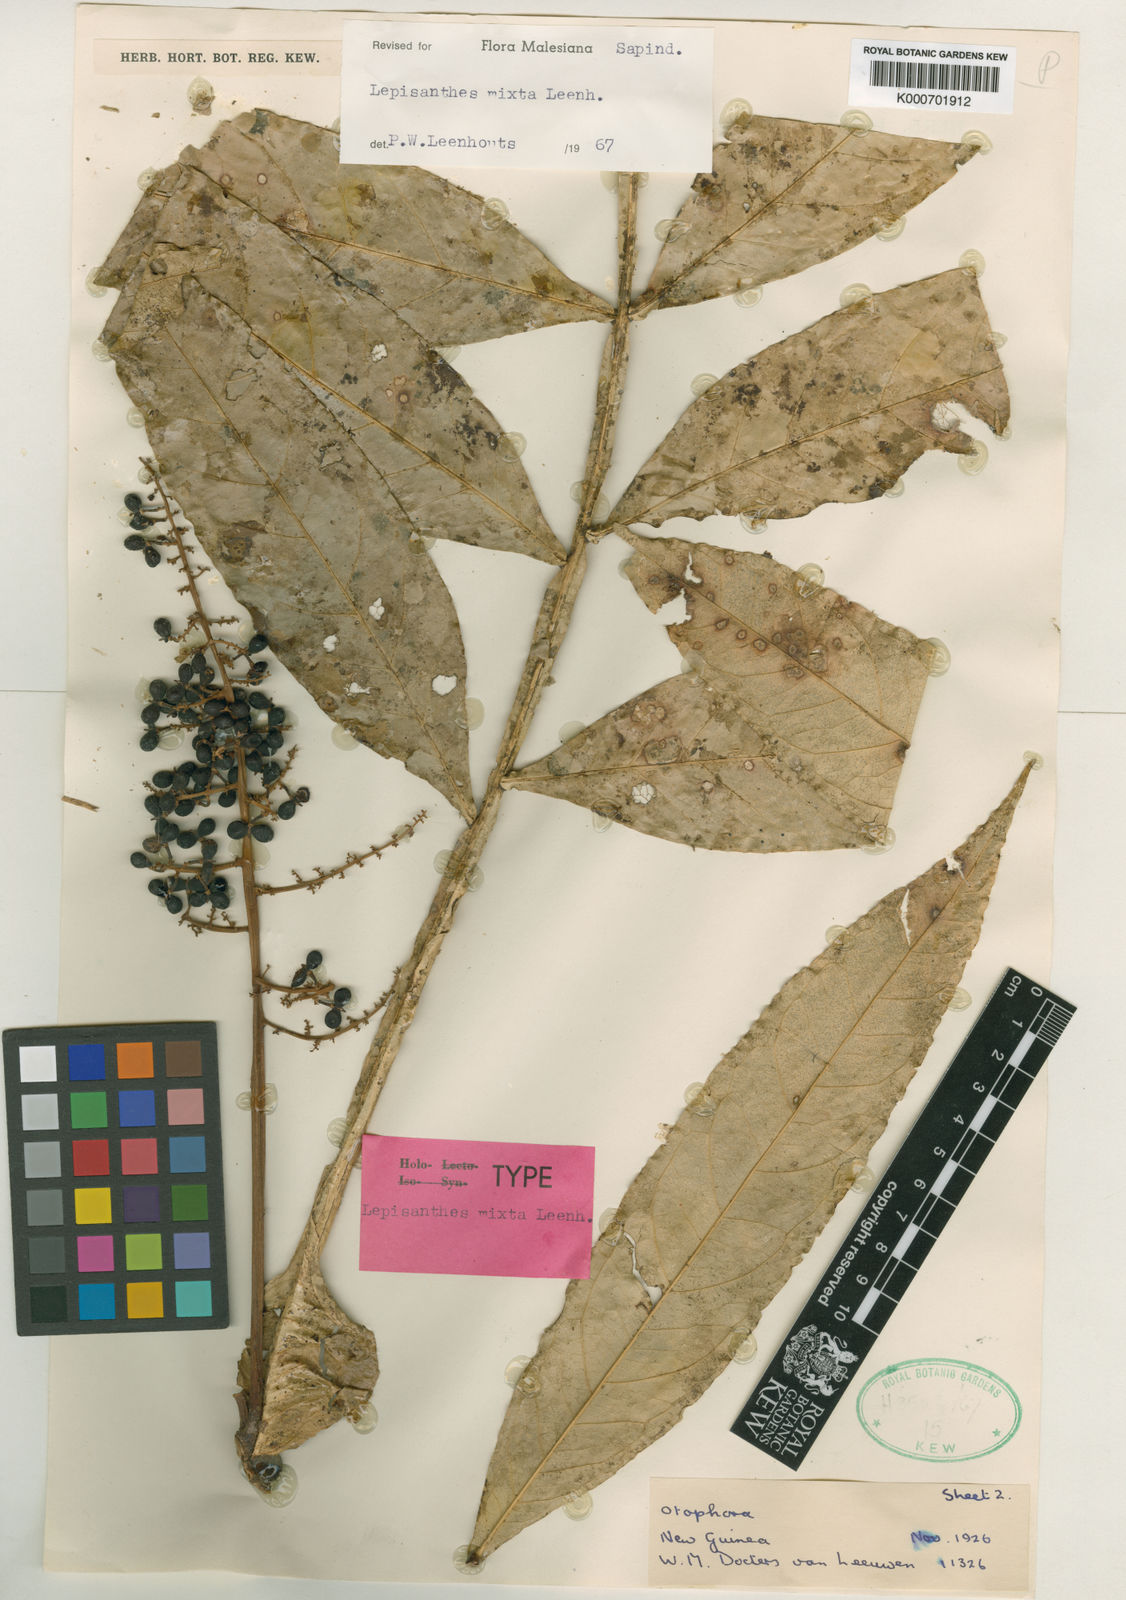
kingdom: Plantae
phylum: Tracheophyta
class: Magnoliopsida
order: Sapindales
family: Sapindaceae
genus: Lepisanthes
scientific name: Lepisanthes mixta
